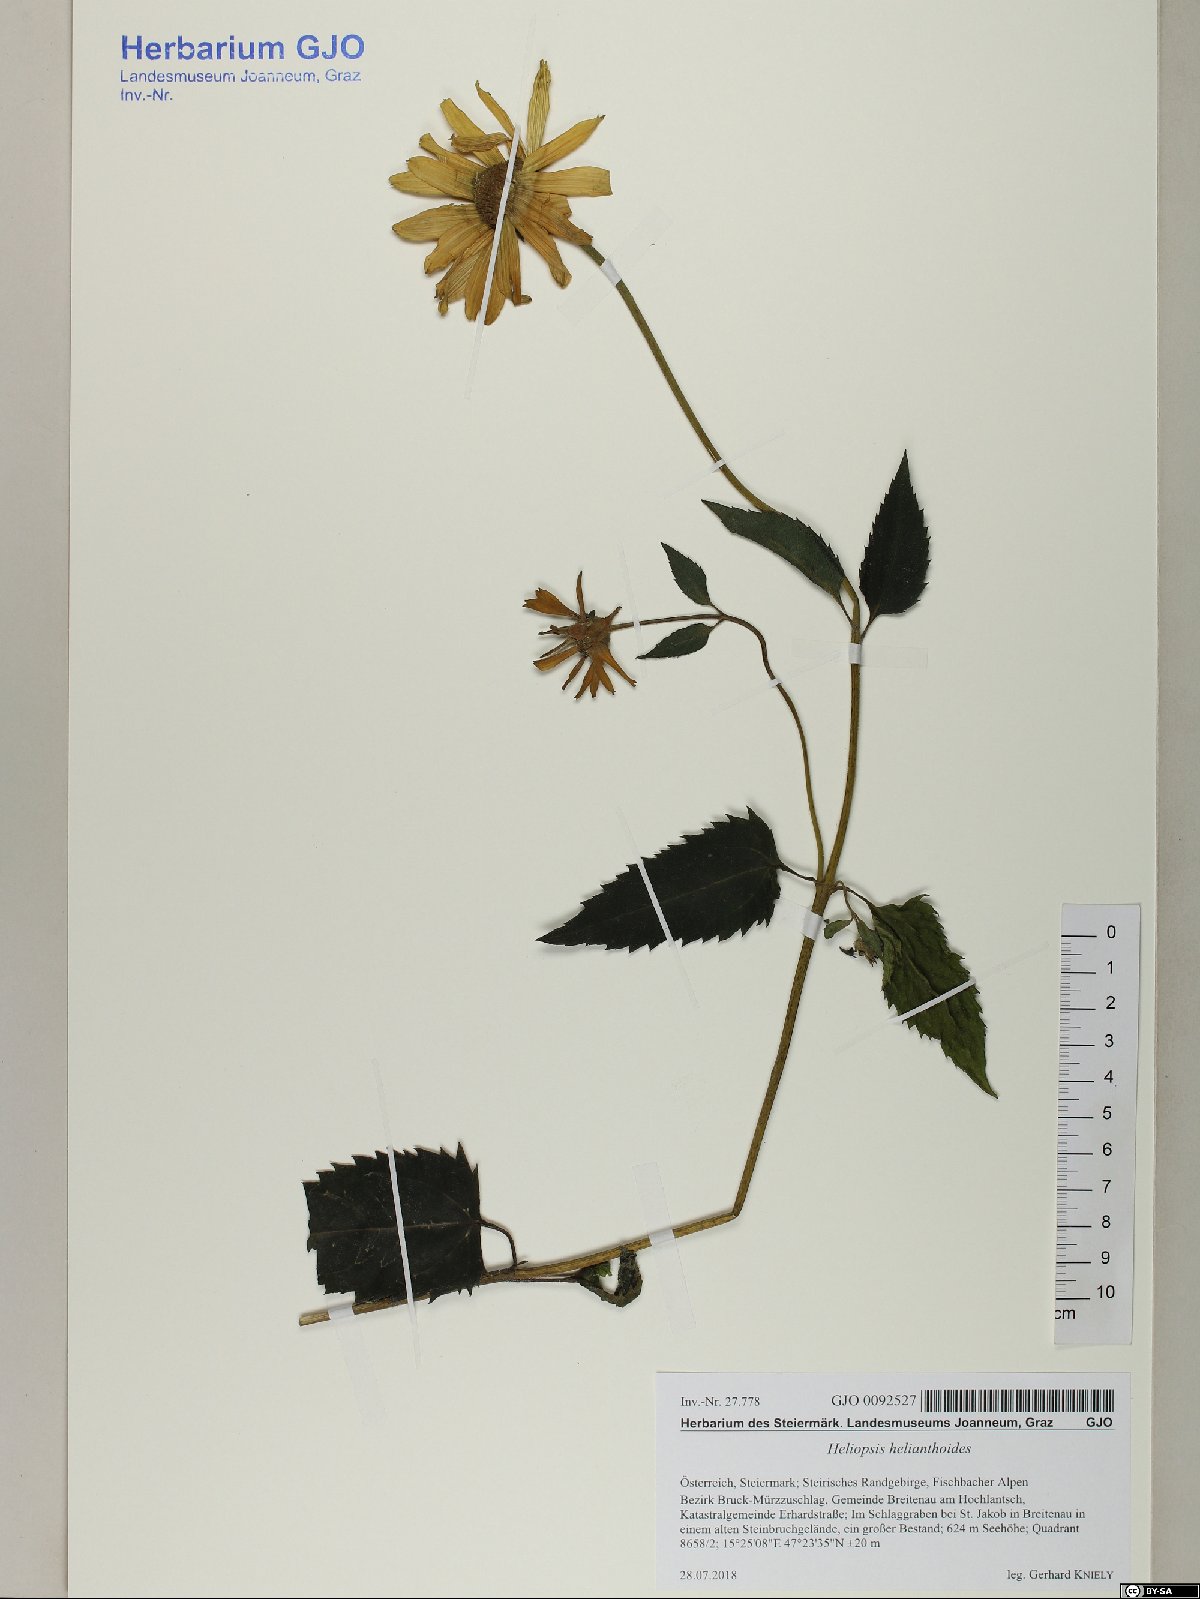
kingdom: Plantae
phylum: Tracheophyta
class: Magnoliopsida
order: Asterales
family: Asteraceae
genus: Heliopsis
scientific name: Heliopsis helianthoides
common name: False sunflower
